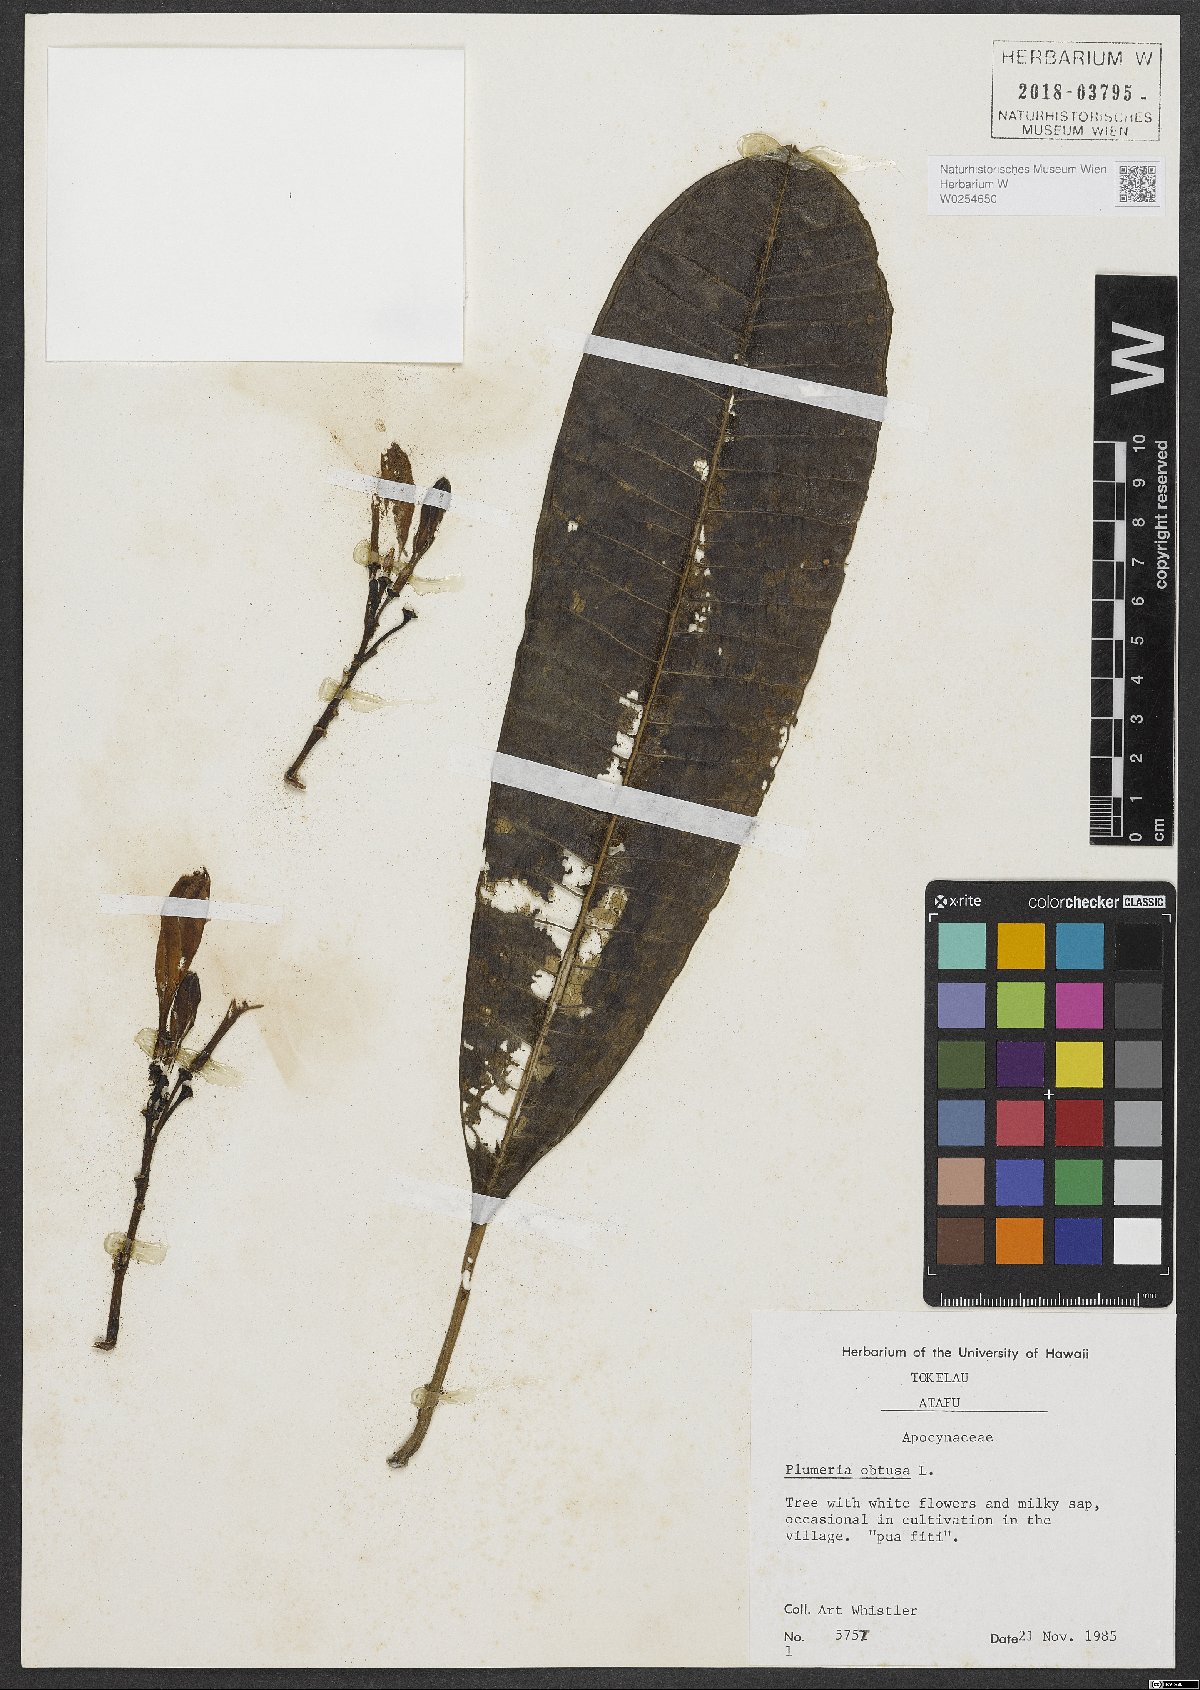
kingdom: Plantae
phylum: Tracheophyta
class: Magnoliopsida
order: Gentianales
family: Apocynaceae
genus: Plumeria
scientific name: Plumeria obtusa
